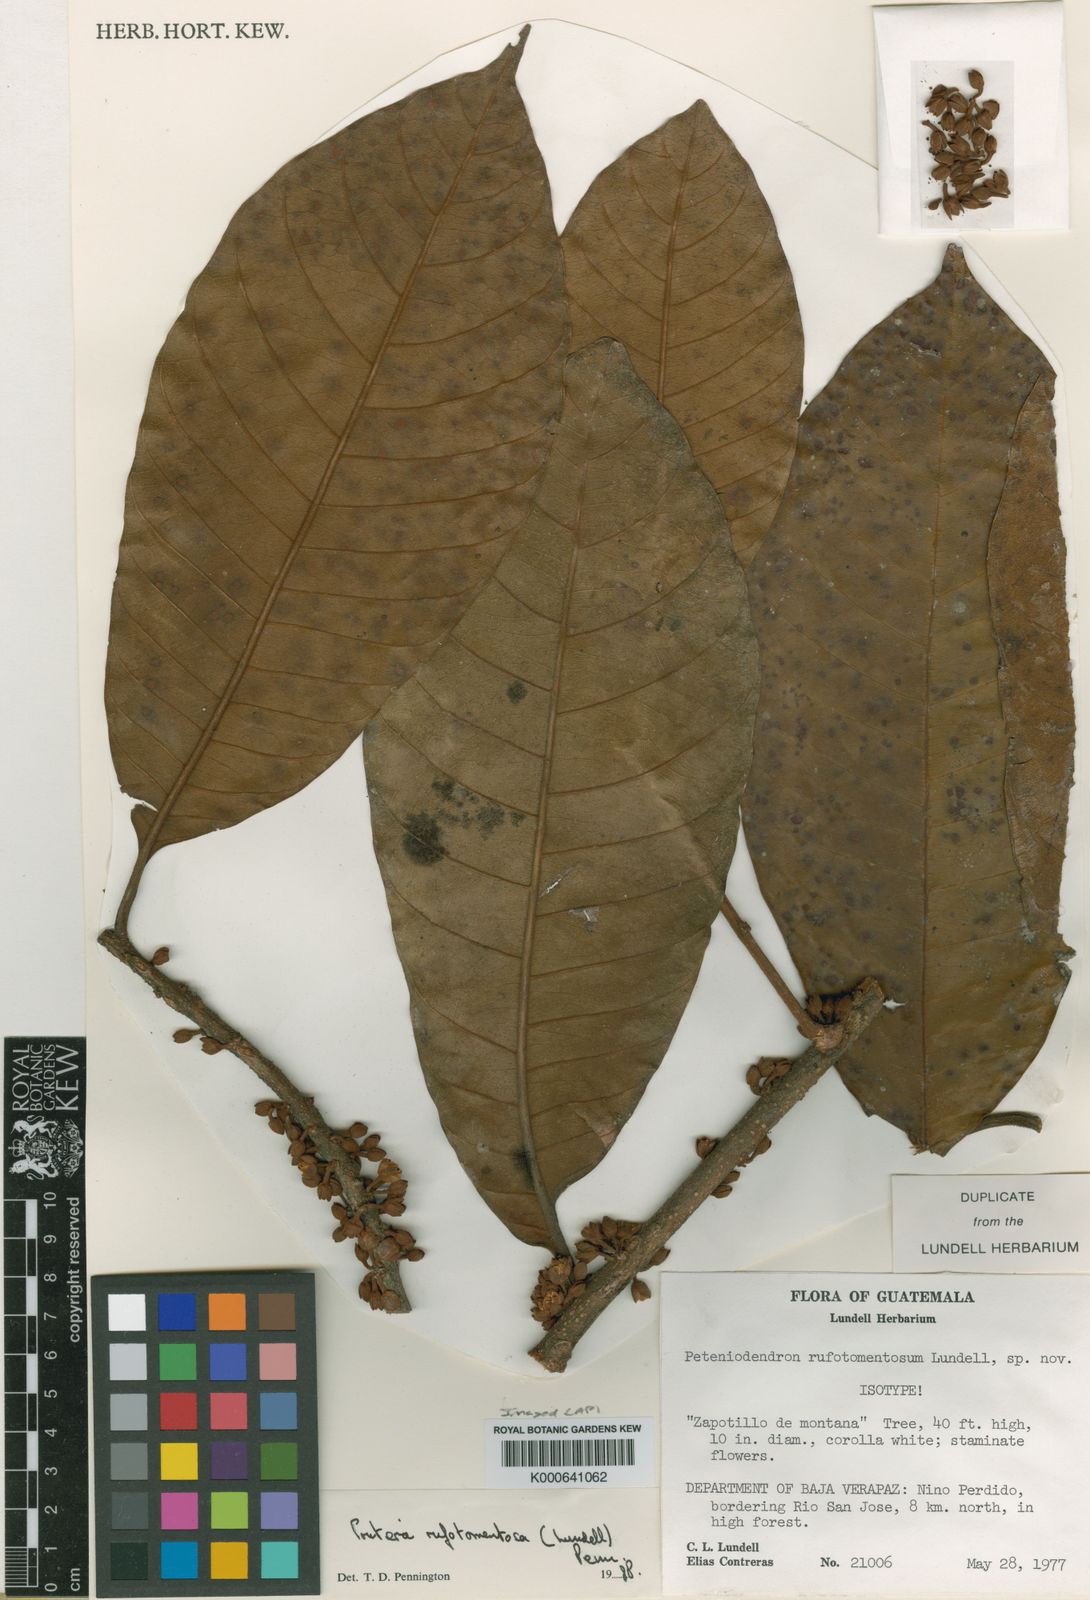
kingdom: Plantae
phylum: Tracheophyta
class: Magnoliopsida
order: Ericales
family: Sapotaceae
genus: Pouteria
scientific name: Pouteria rufotomentosa
